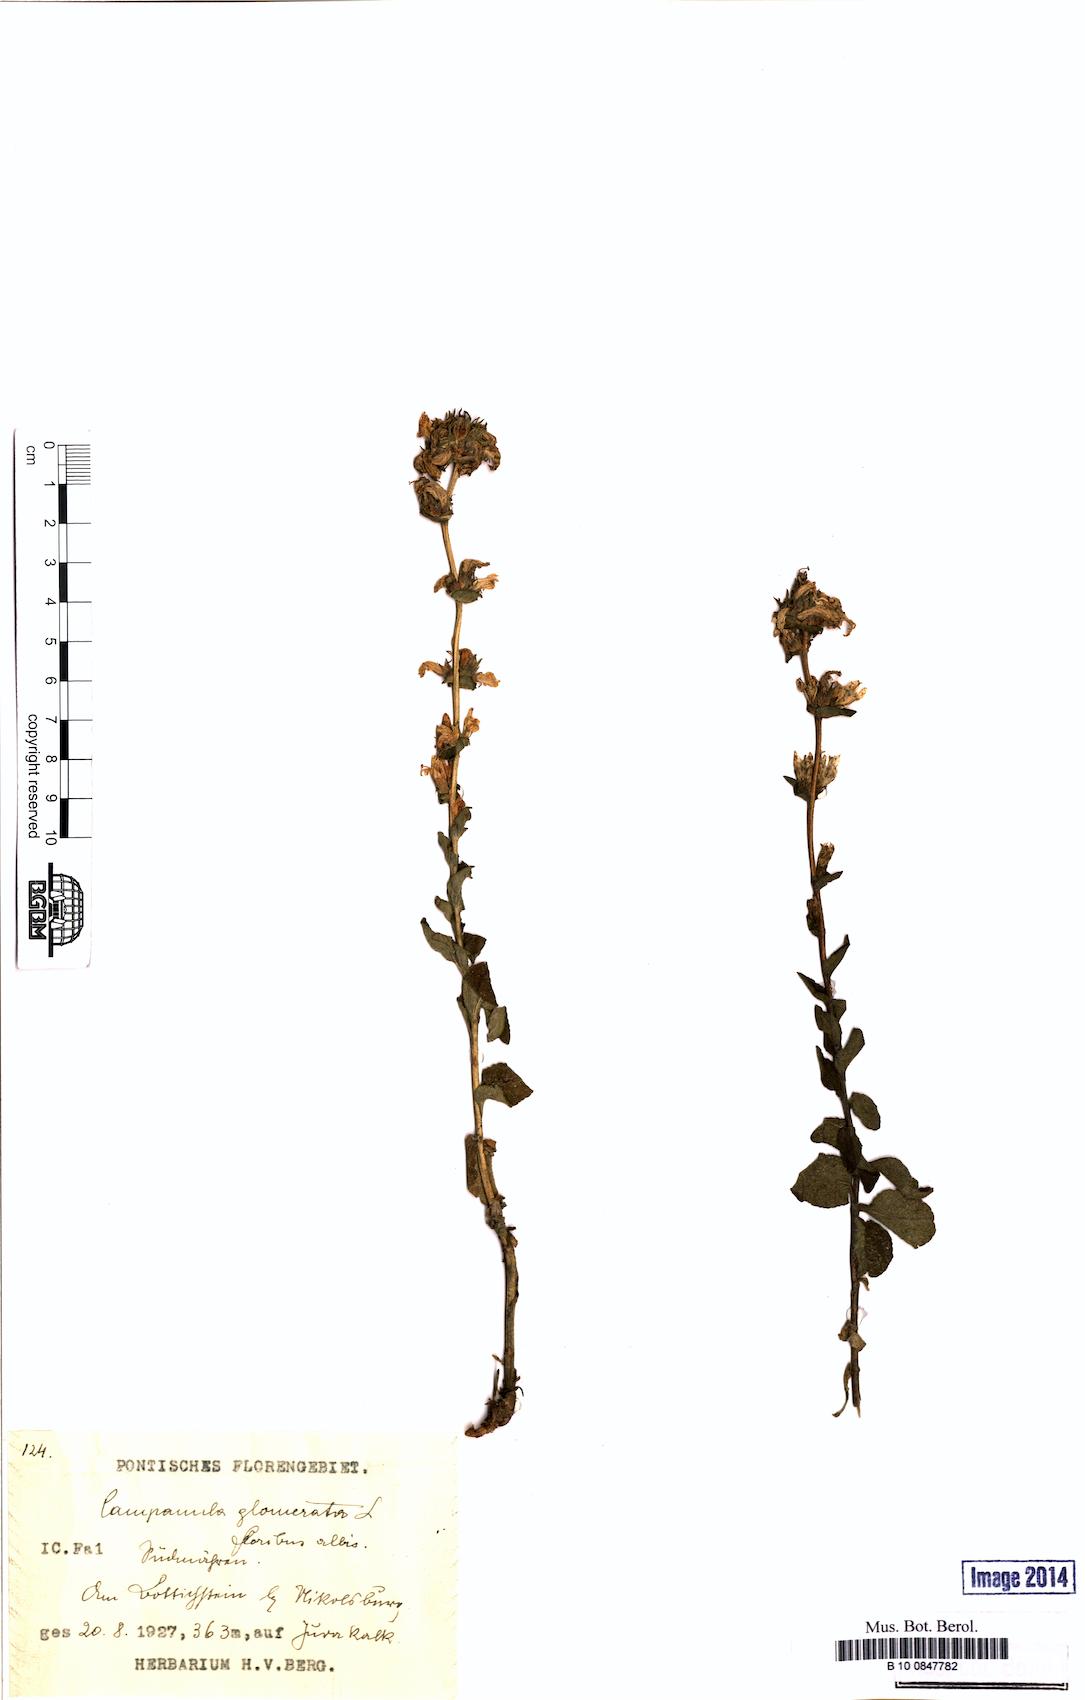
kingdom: Plantae
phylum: Tracheophyta
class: Magnoliopsida
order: Asterales
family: Campanulaceae
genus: Campanula
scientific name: Campanula glomerata
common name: Clustered bellflower
